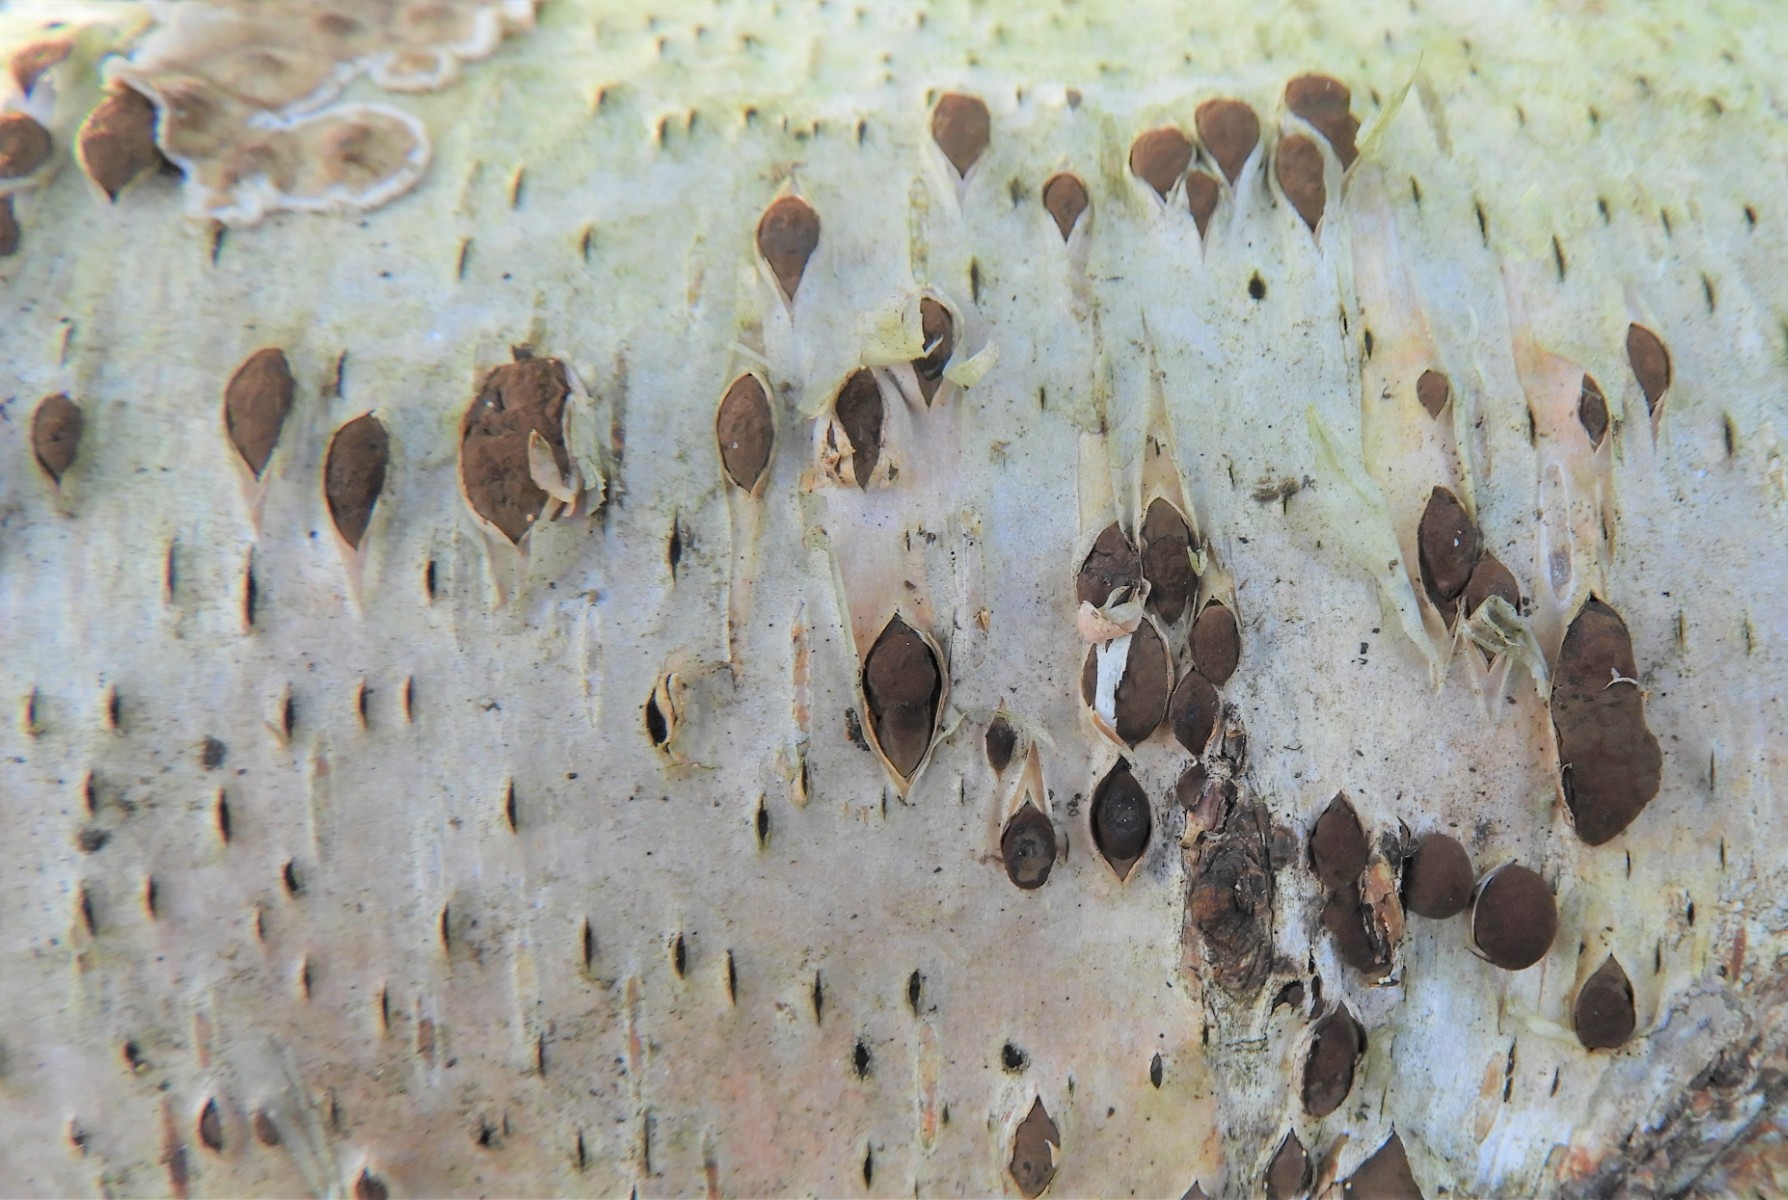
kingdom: Fungi
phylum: Ascomycota
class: Sordariomycetes
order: Xylariales
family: Hypoxylaceae
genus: Jackrogersella
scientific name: Jackrogersella multiformis
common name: foranderlig kulbær
